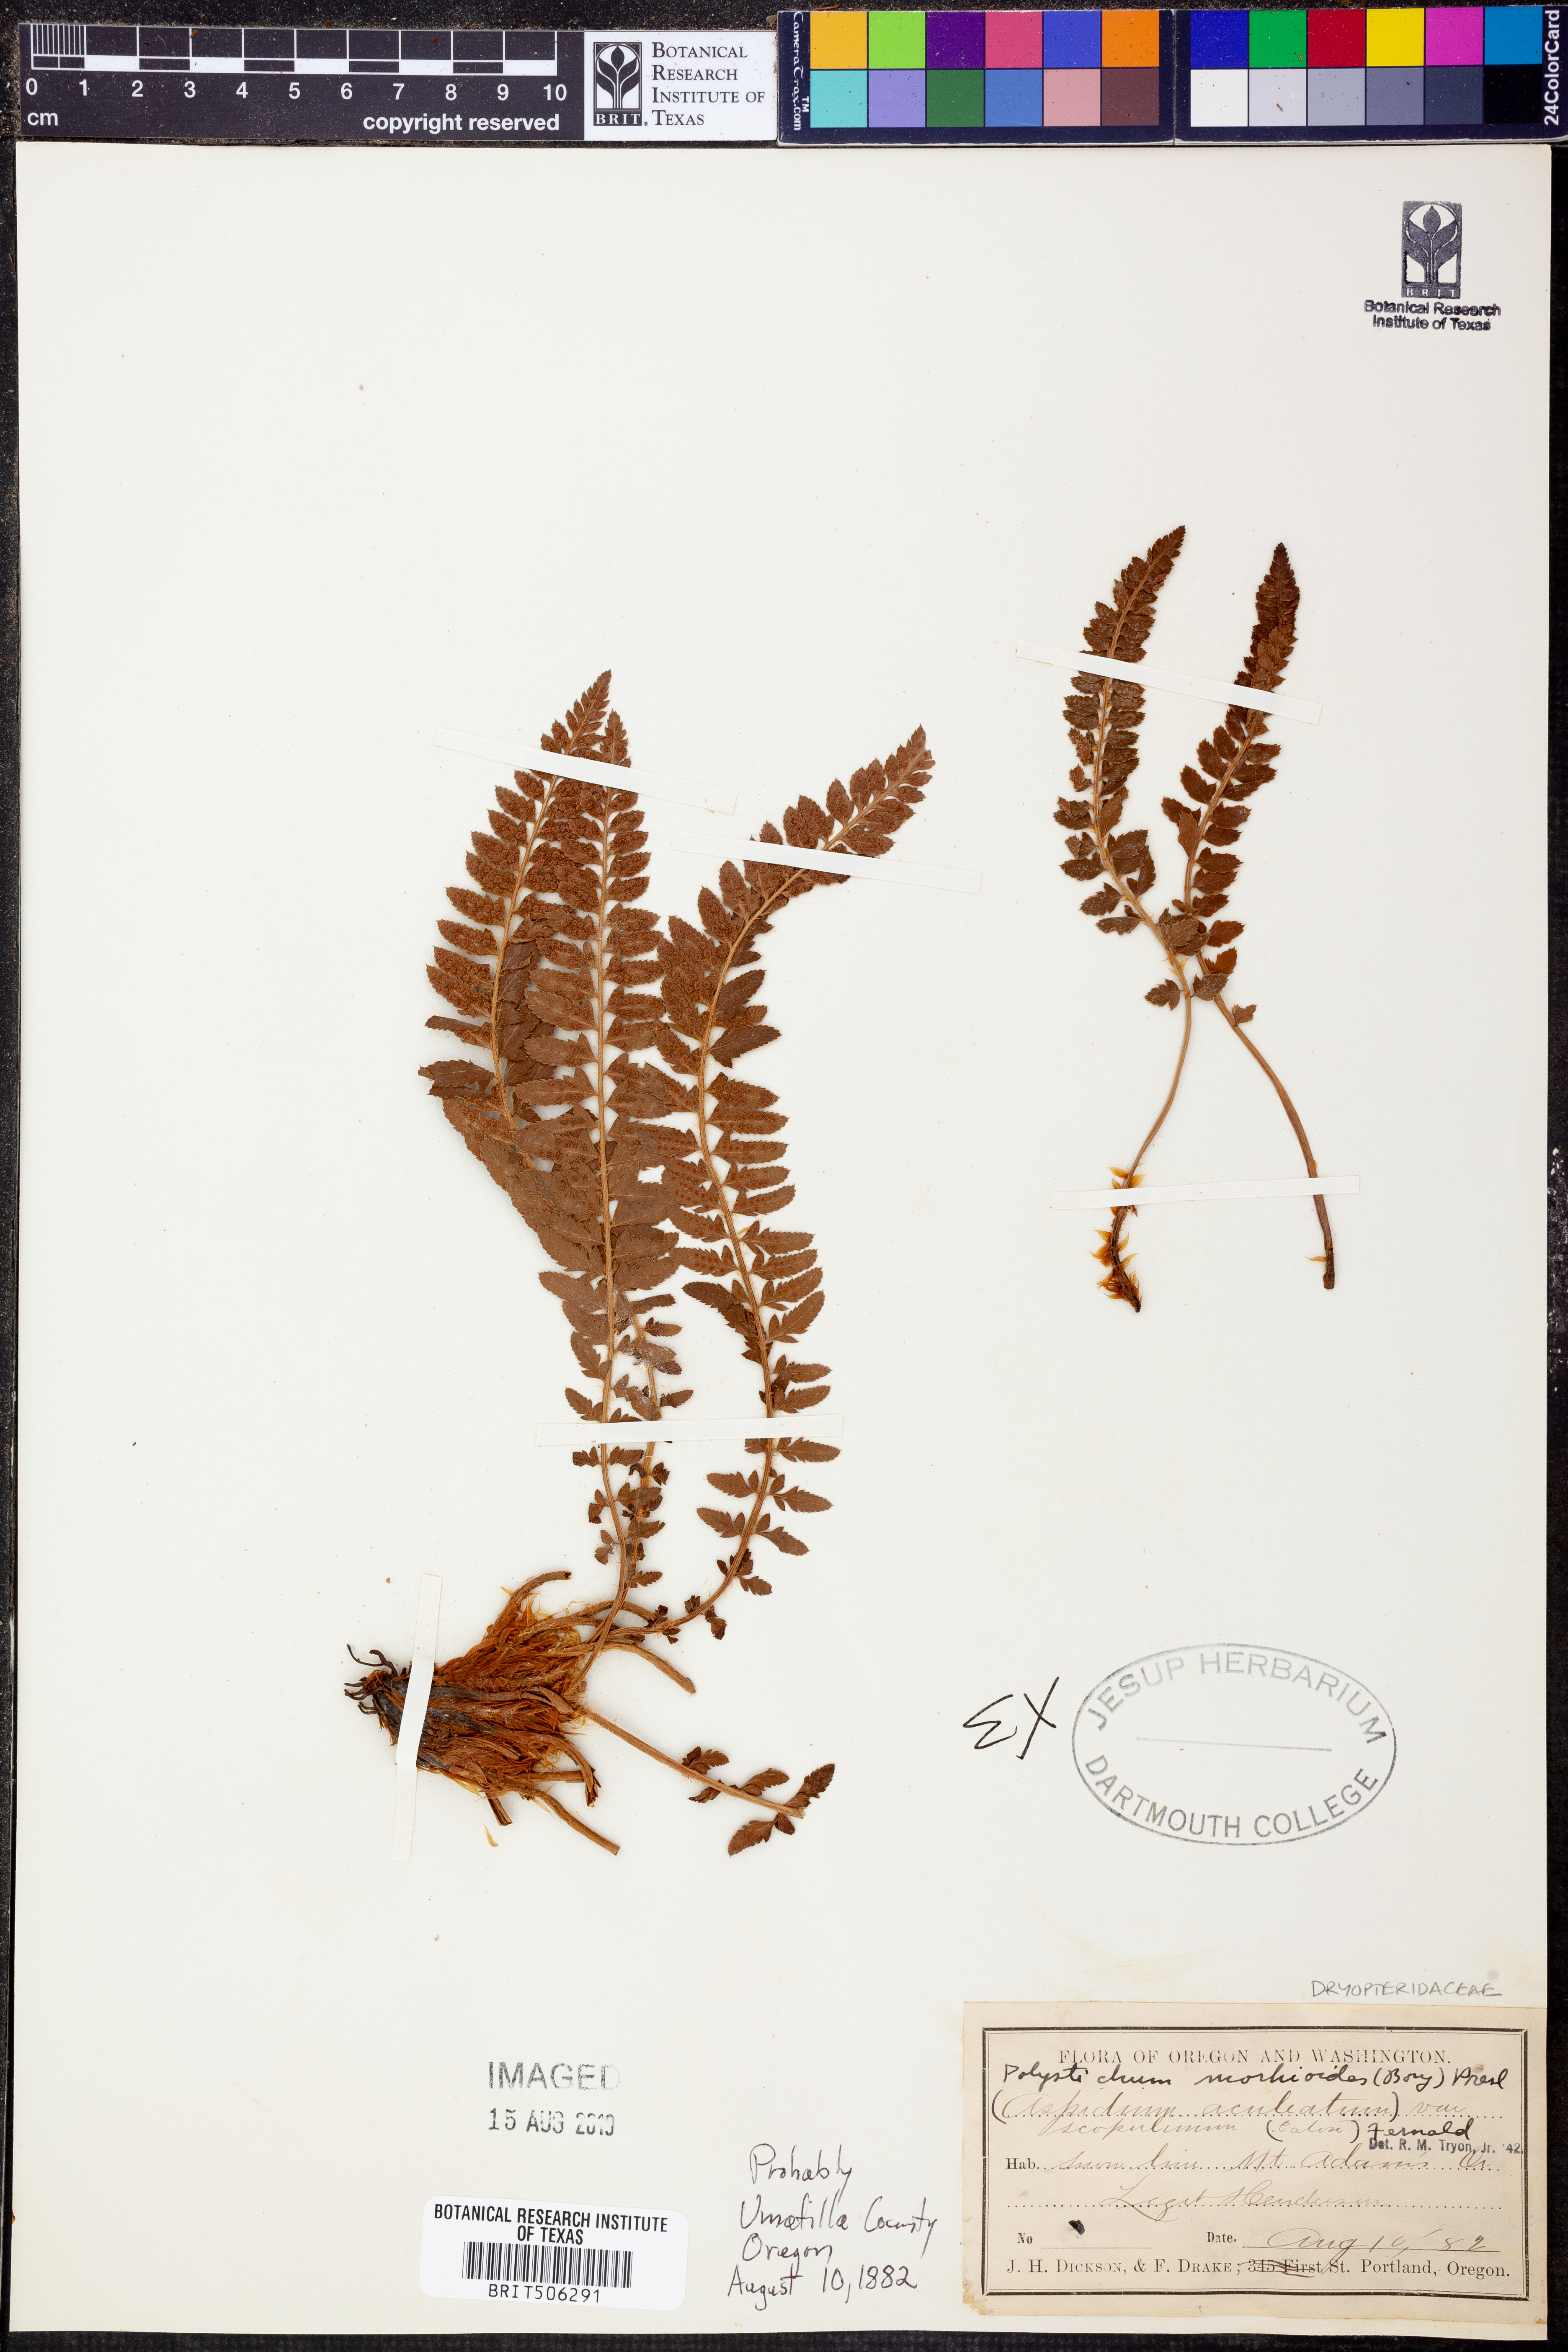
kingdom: Plantae
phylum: Tracheophyta
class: Polypodiopsida
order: Polypodiales
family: Dryopteridaceae
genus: Polystichum
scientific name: Polystichum mohrioides
